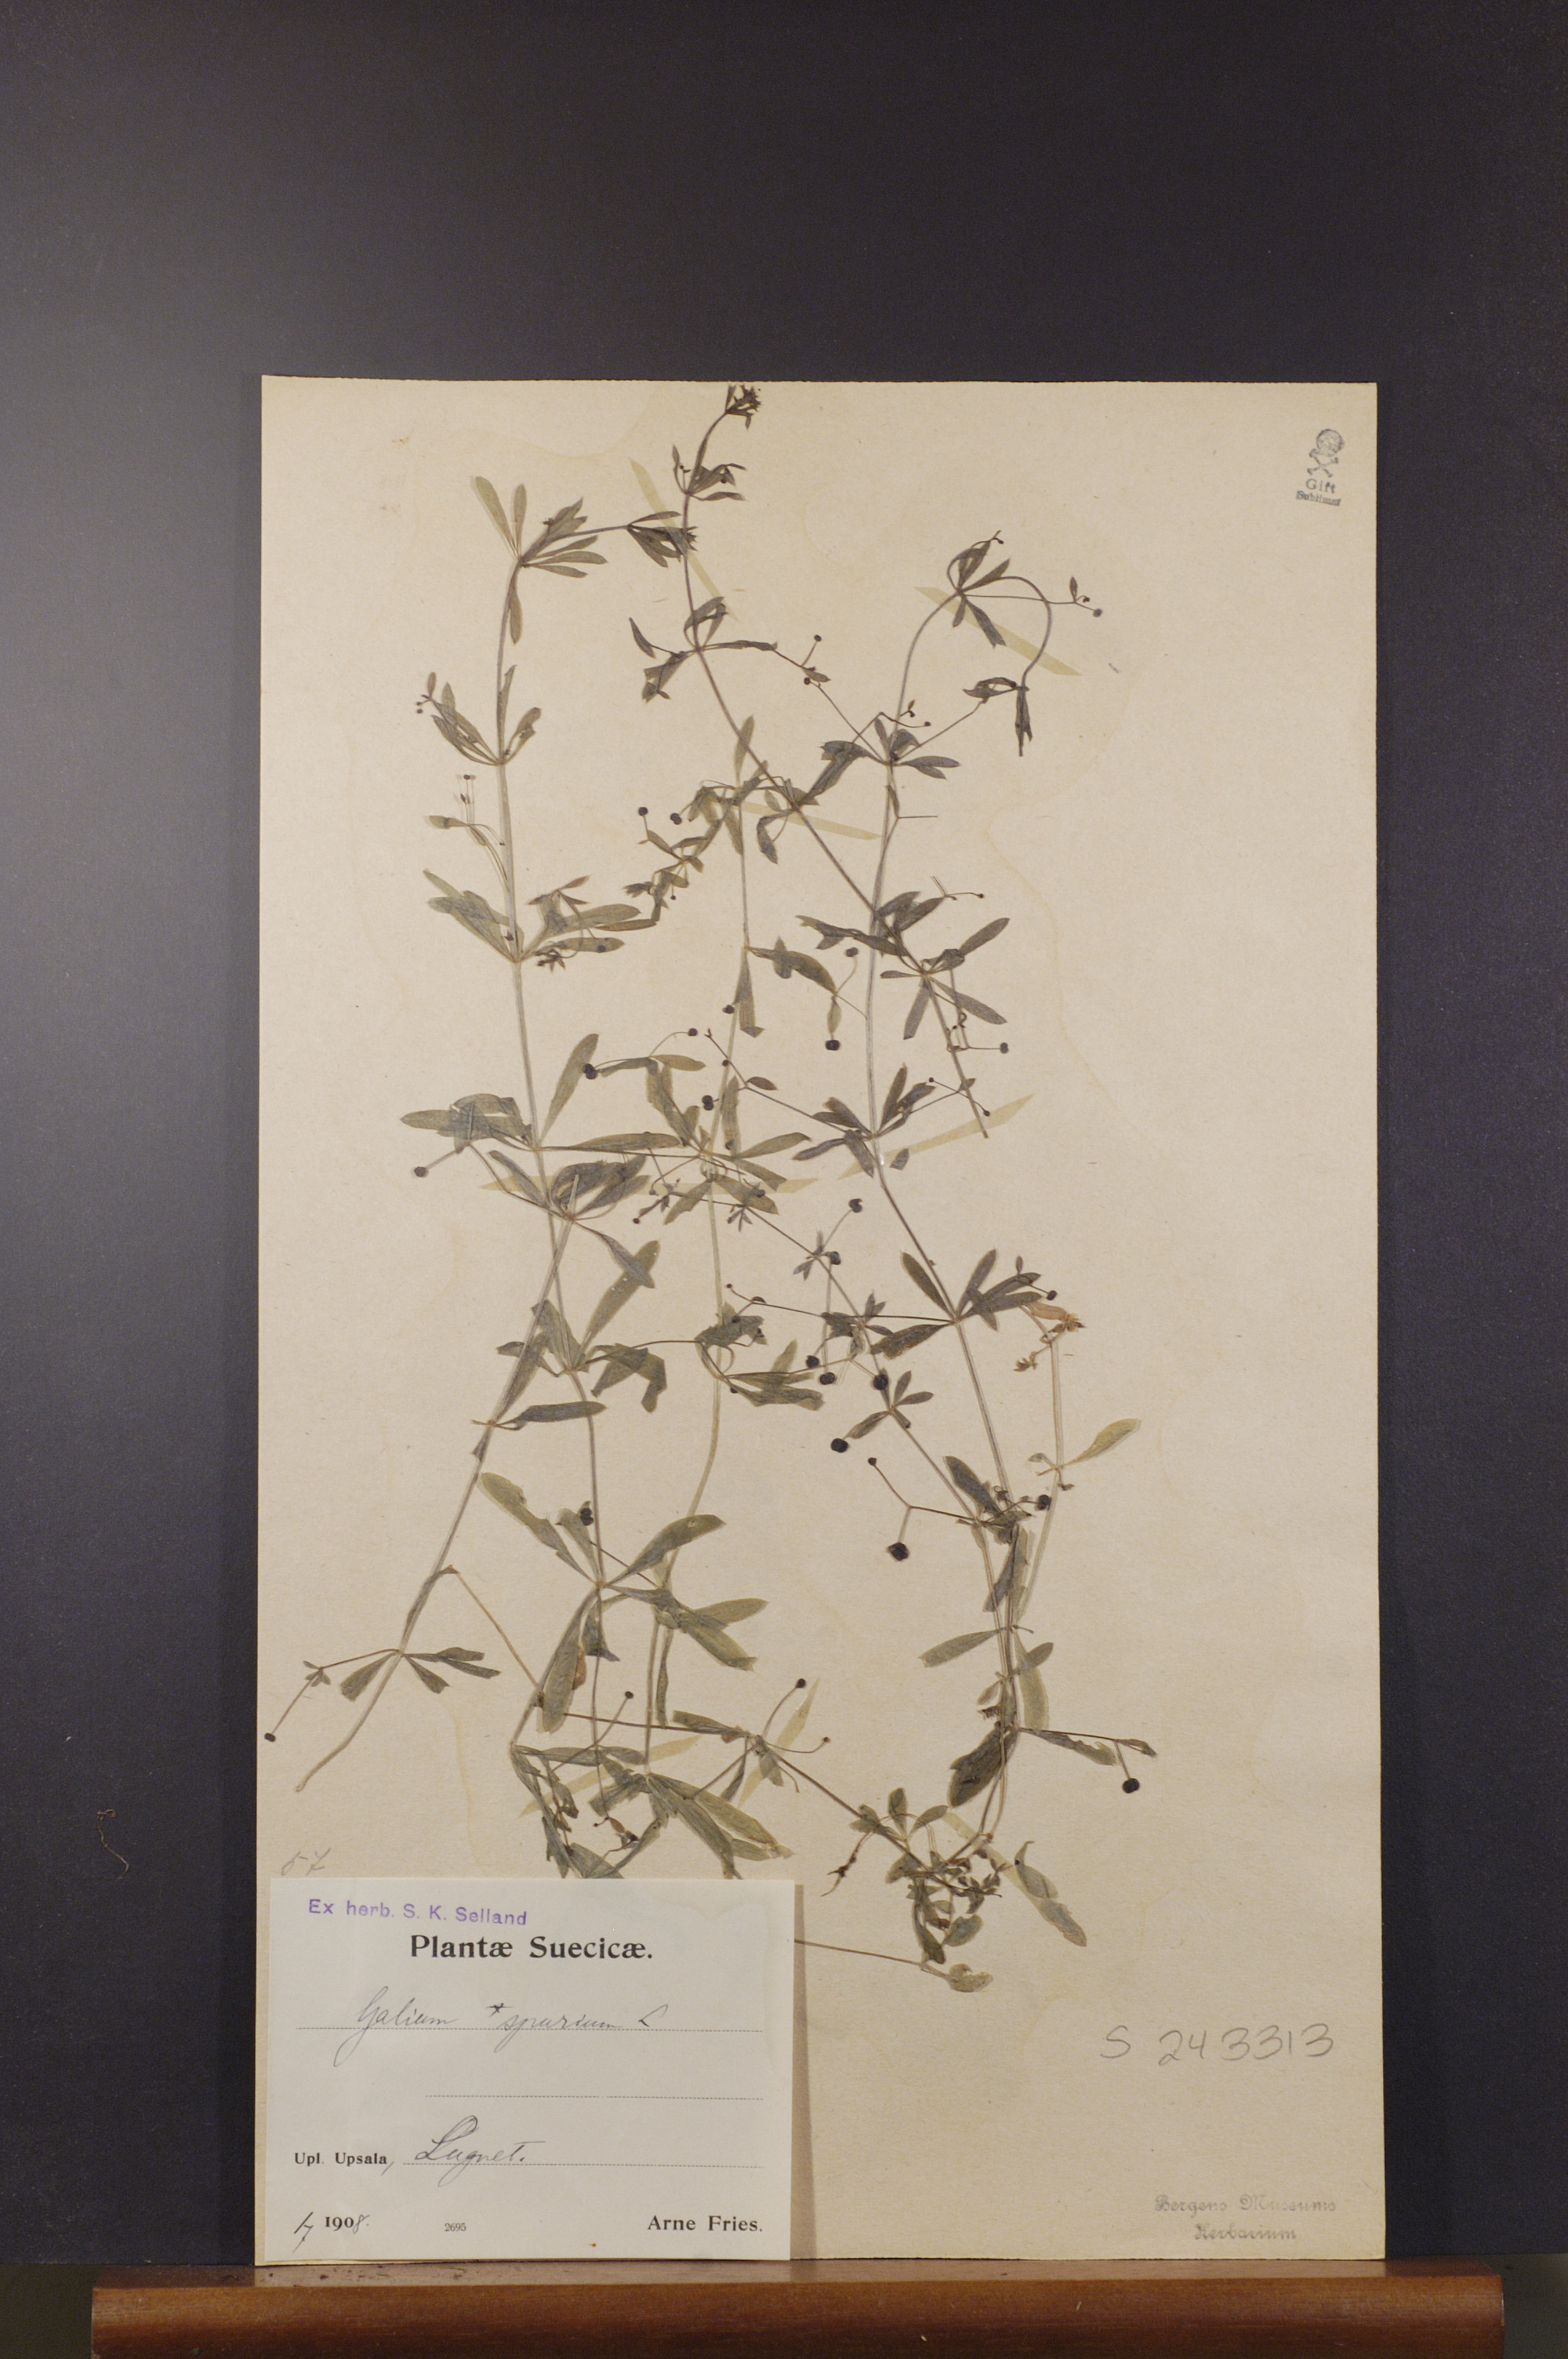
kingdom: Plantae
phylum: Tracheophyta
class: Magnoliopsida
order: Gentianales
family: Rubiaceae
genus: Galium
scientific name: Galium spurium
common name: False cleavers
